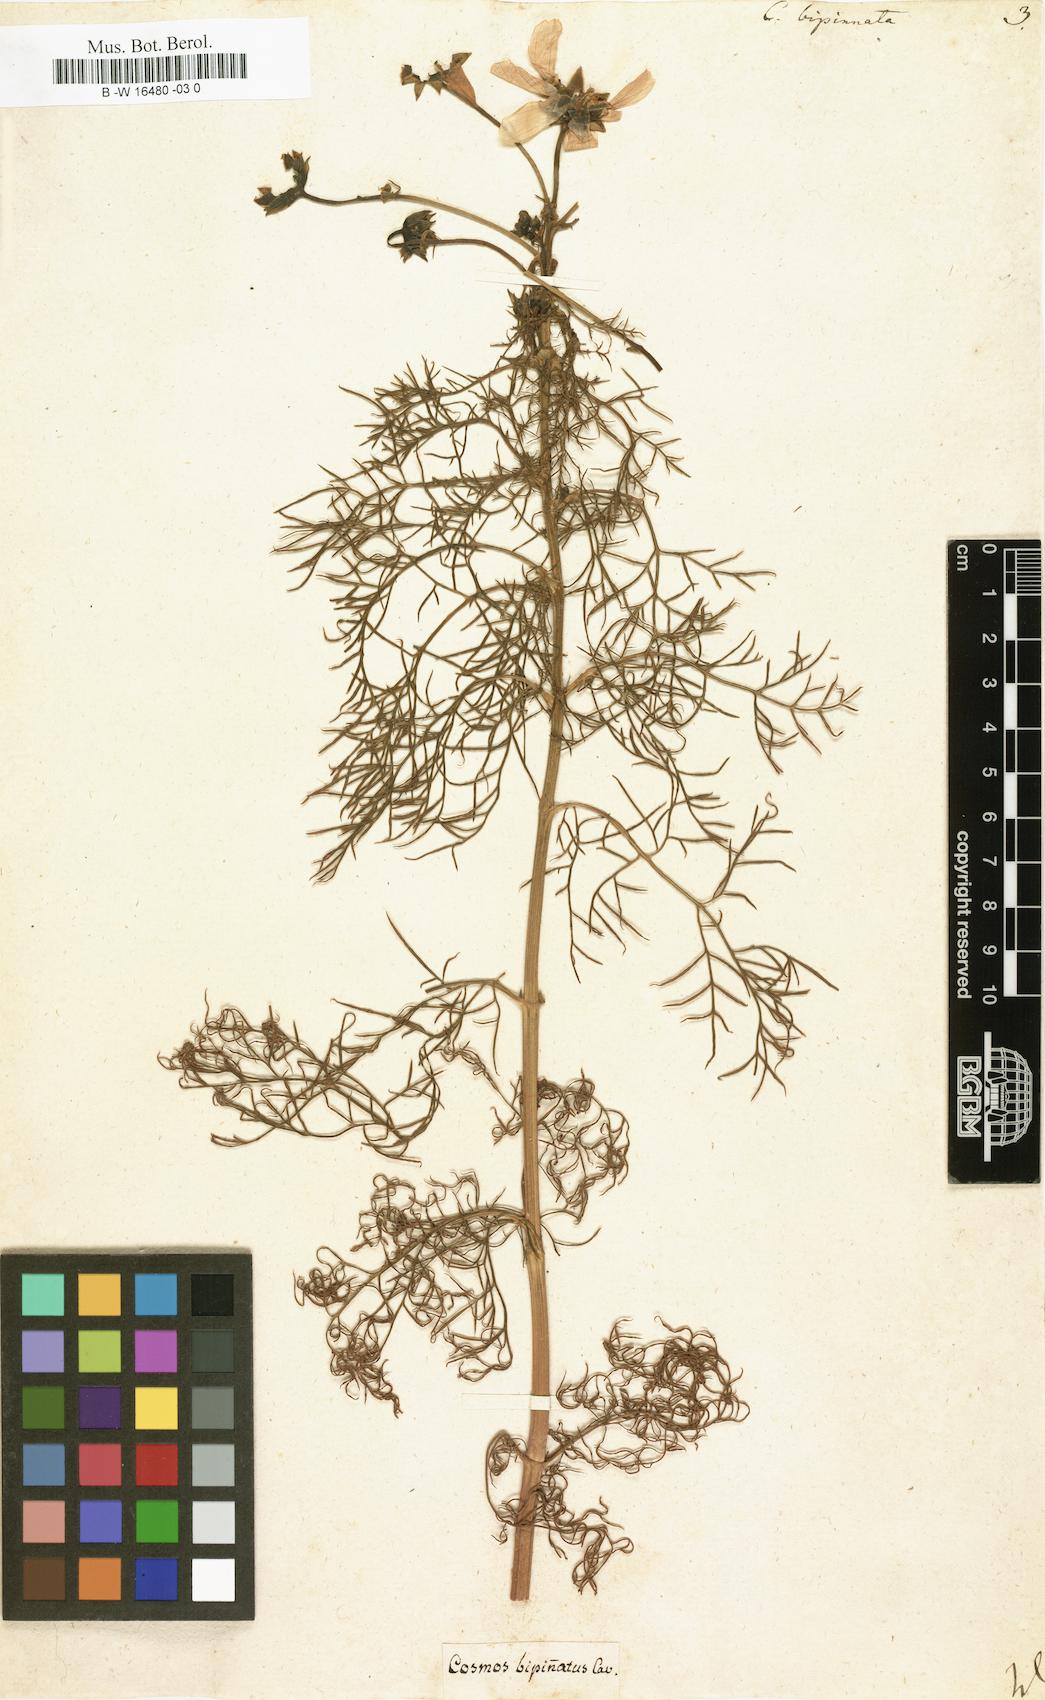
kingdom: Plantae
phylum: Tracheophyta
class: Magnoliopsida
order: Asterales
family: Asteraceae
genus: Cosmos
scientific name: Cosmos bipinnatus
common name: Garden cosmos
